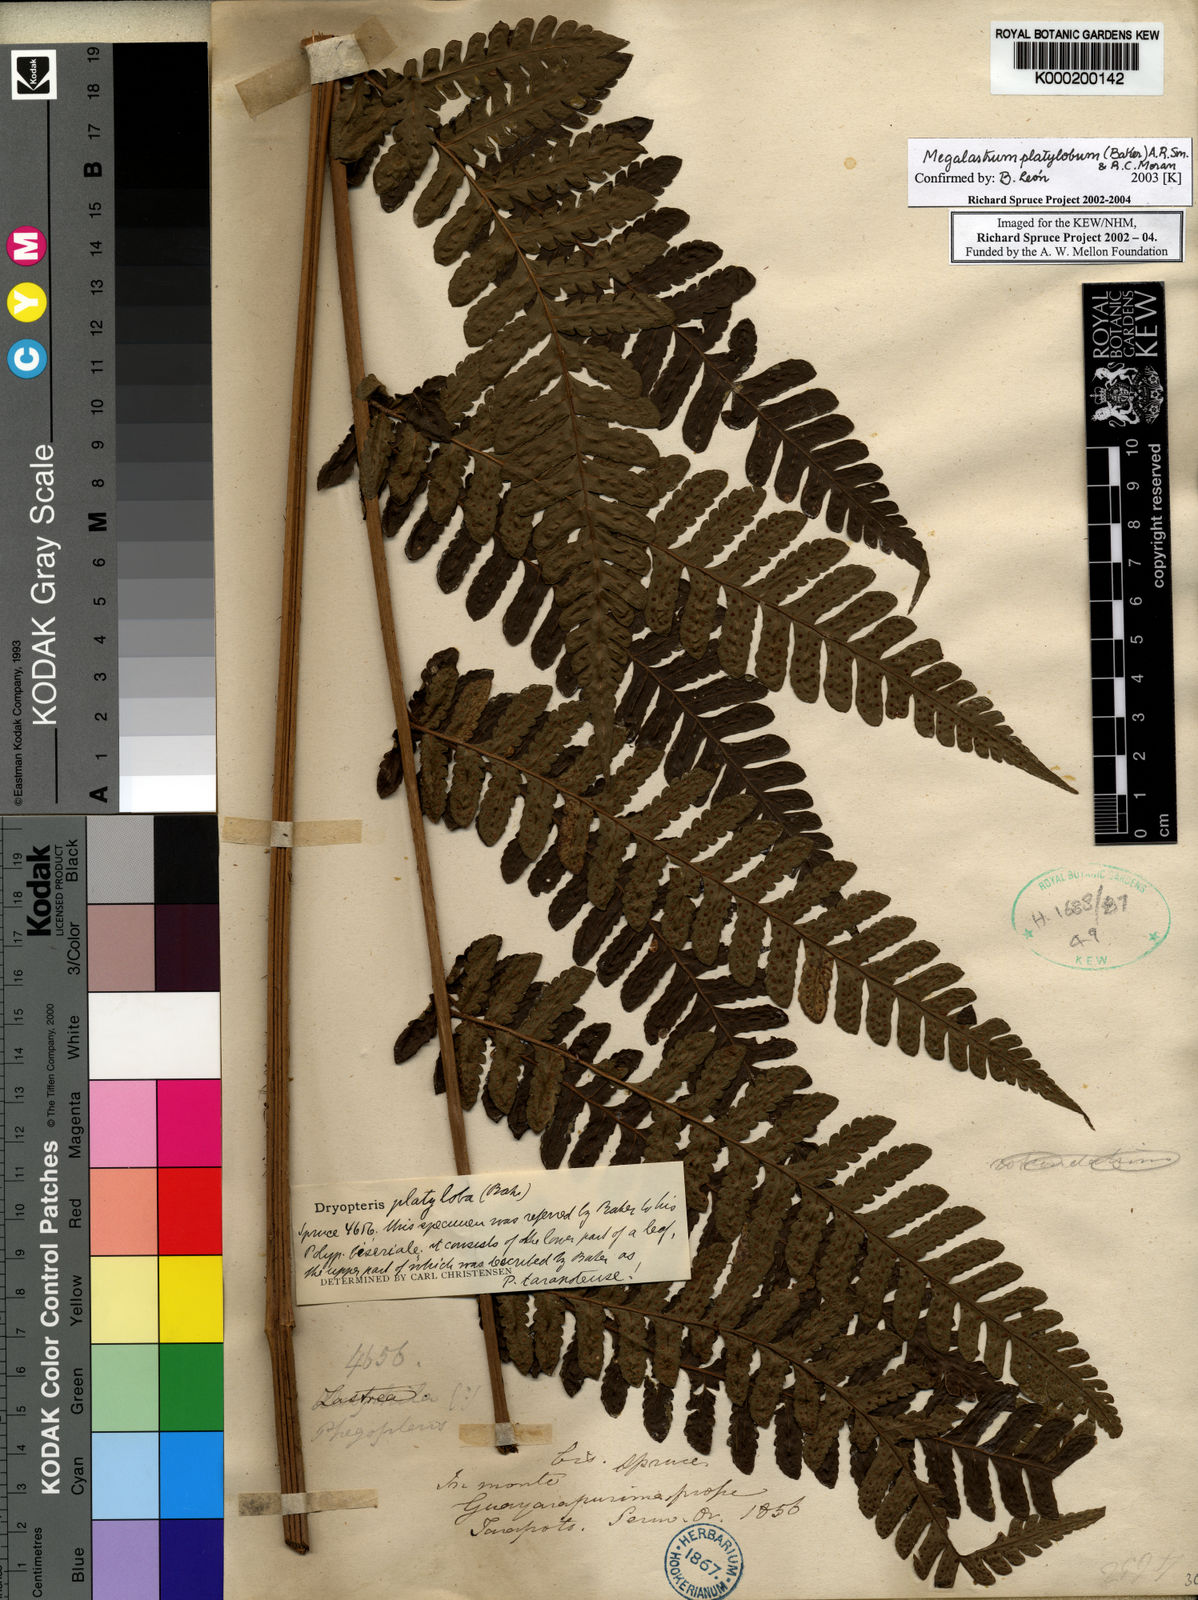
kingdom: Plantae
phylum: Tracheophyta
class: Polypodiopsida
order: Polypodiales
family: Dryopteridaceae
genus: Megalastrum
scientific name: Megalastrum platylobum
